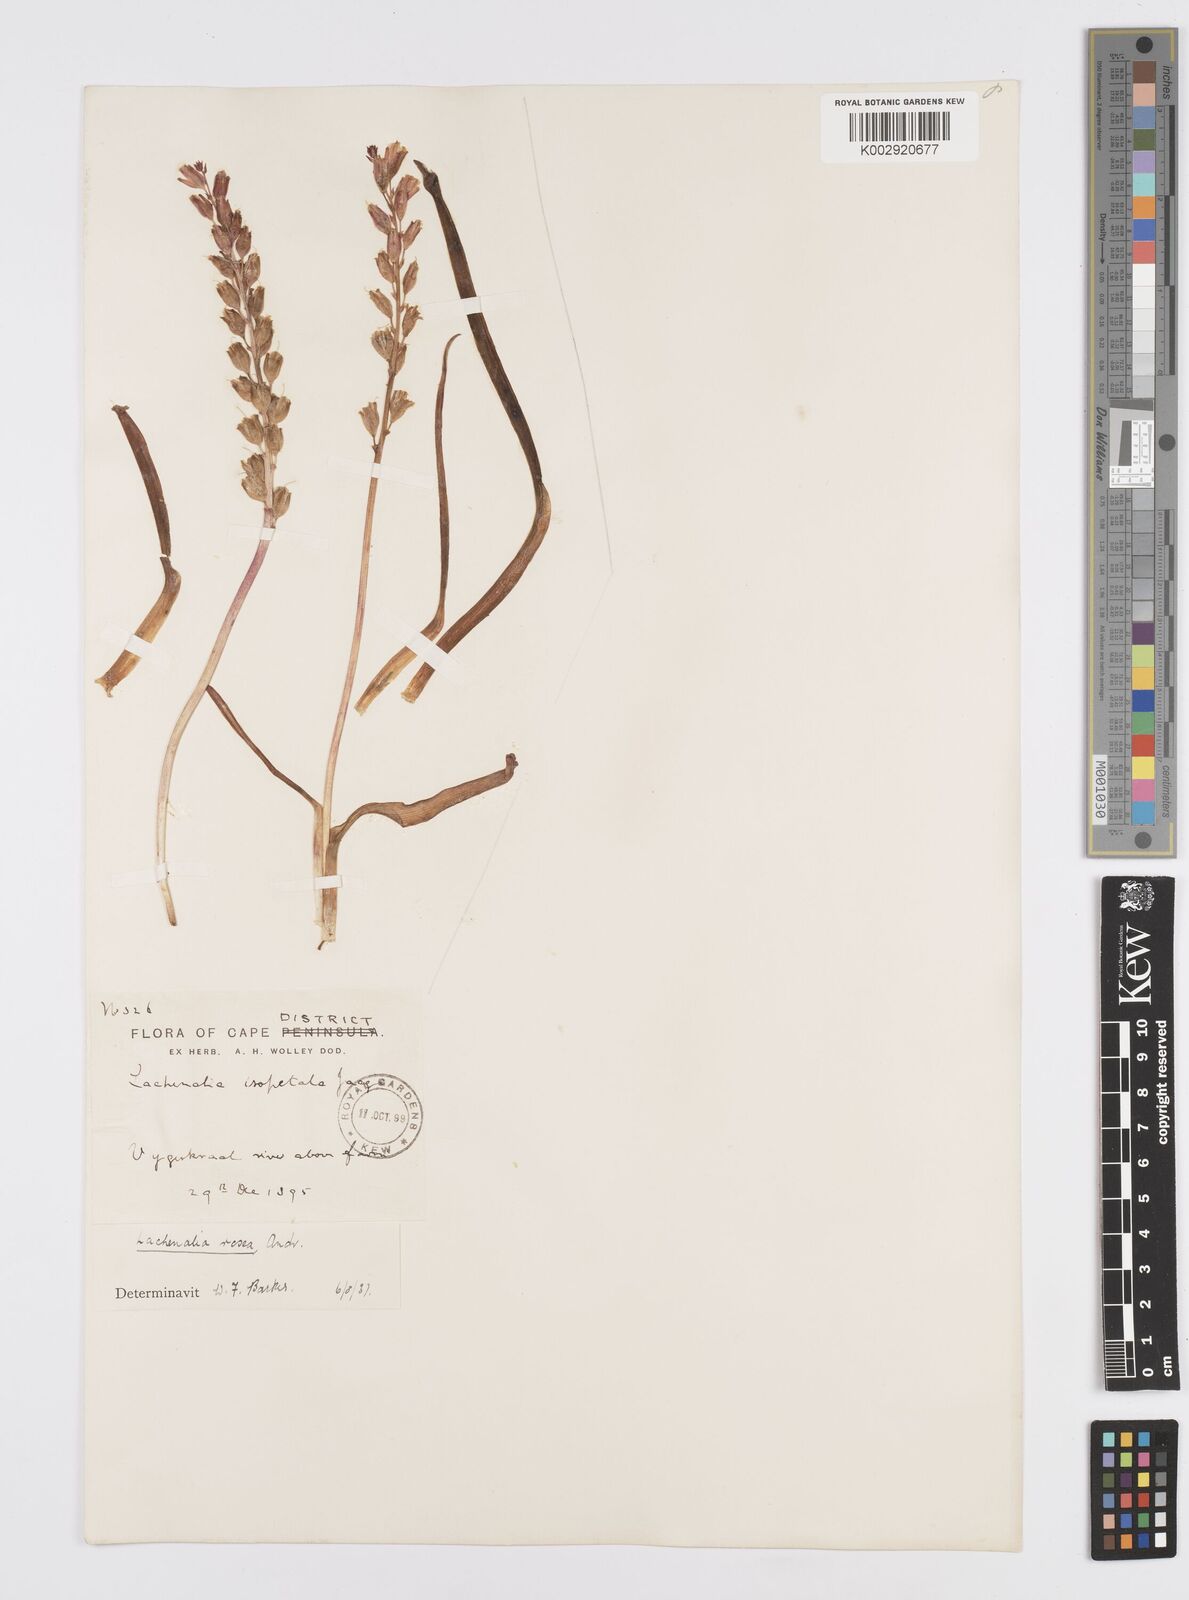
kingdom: Plantae
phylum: Tracheophyta
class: Liliopsida
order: Asparagales
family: Asparagaceae
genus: Lachenalia
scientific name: Lachenalia rosea
